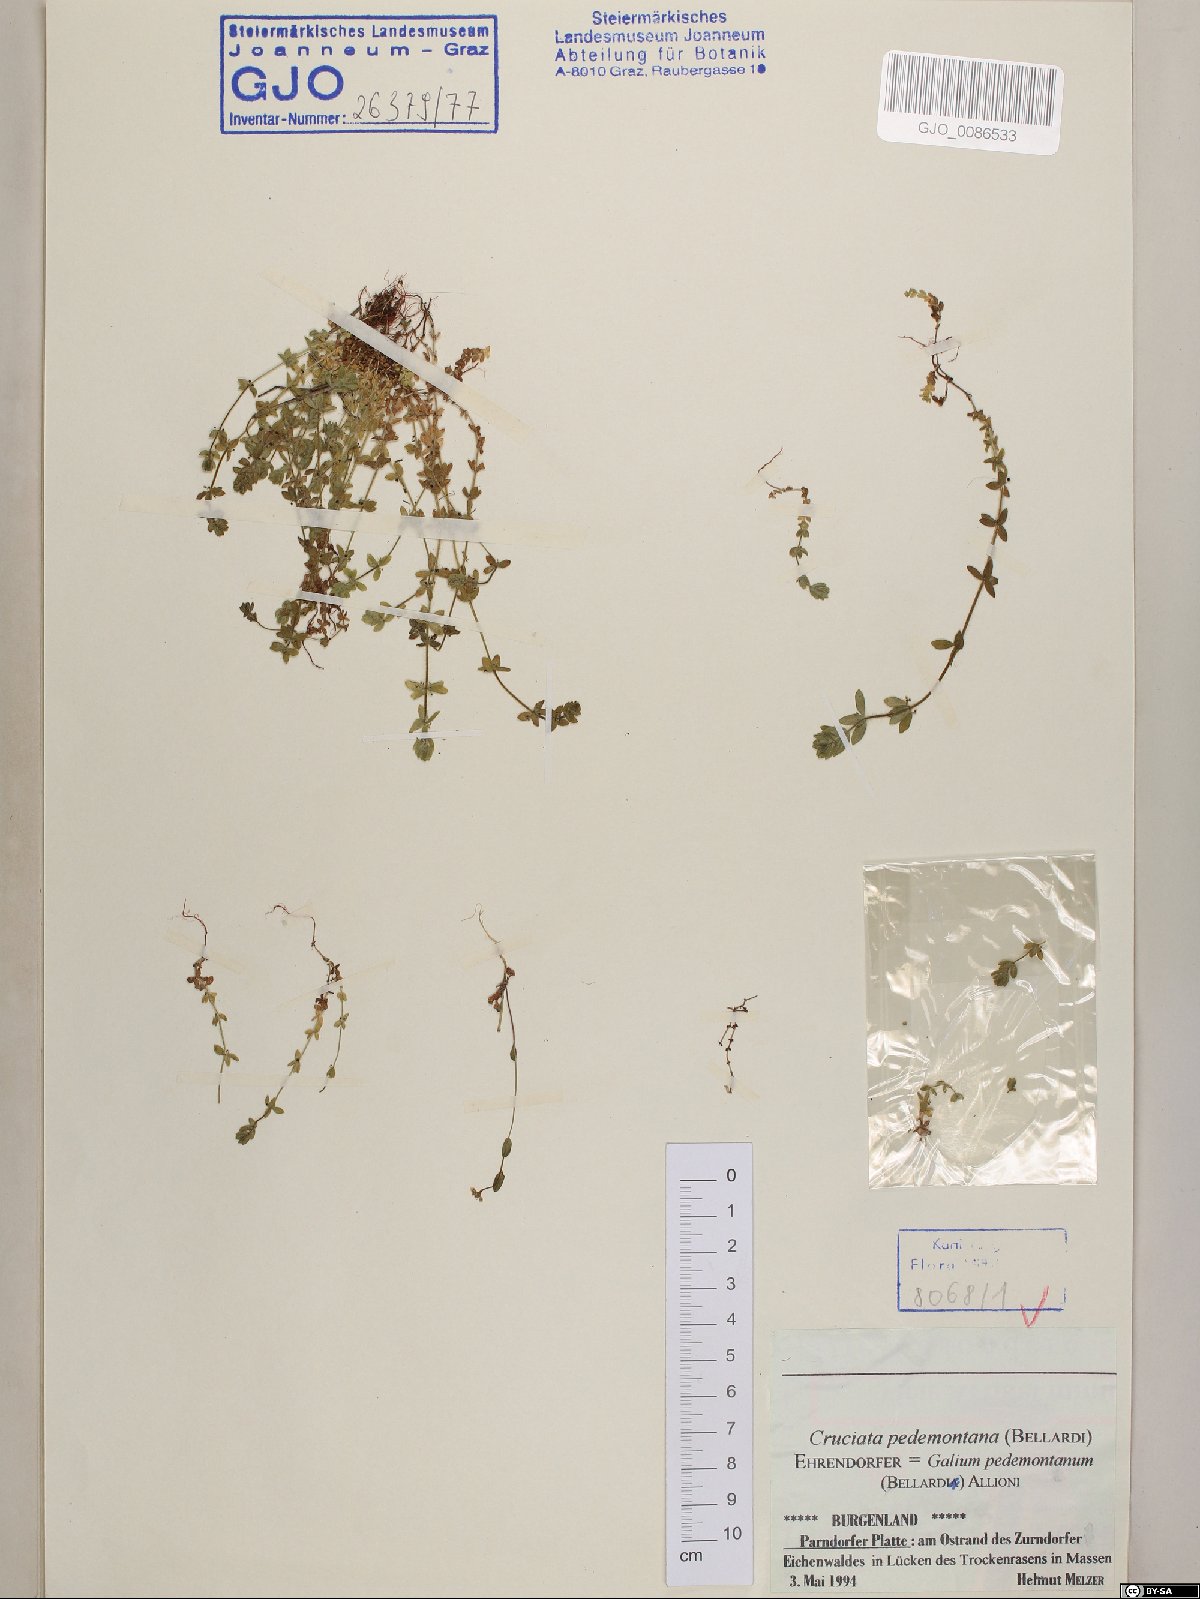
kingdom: Plantae
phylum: Tracheophyta
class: Magnoliopsida
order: Gentianales
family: Rubiaceae
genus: Cruciata
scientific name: Cruciata pedemontana
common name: Piedmont bedstraw
